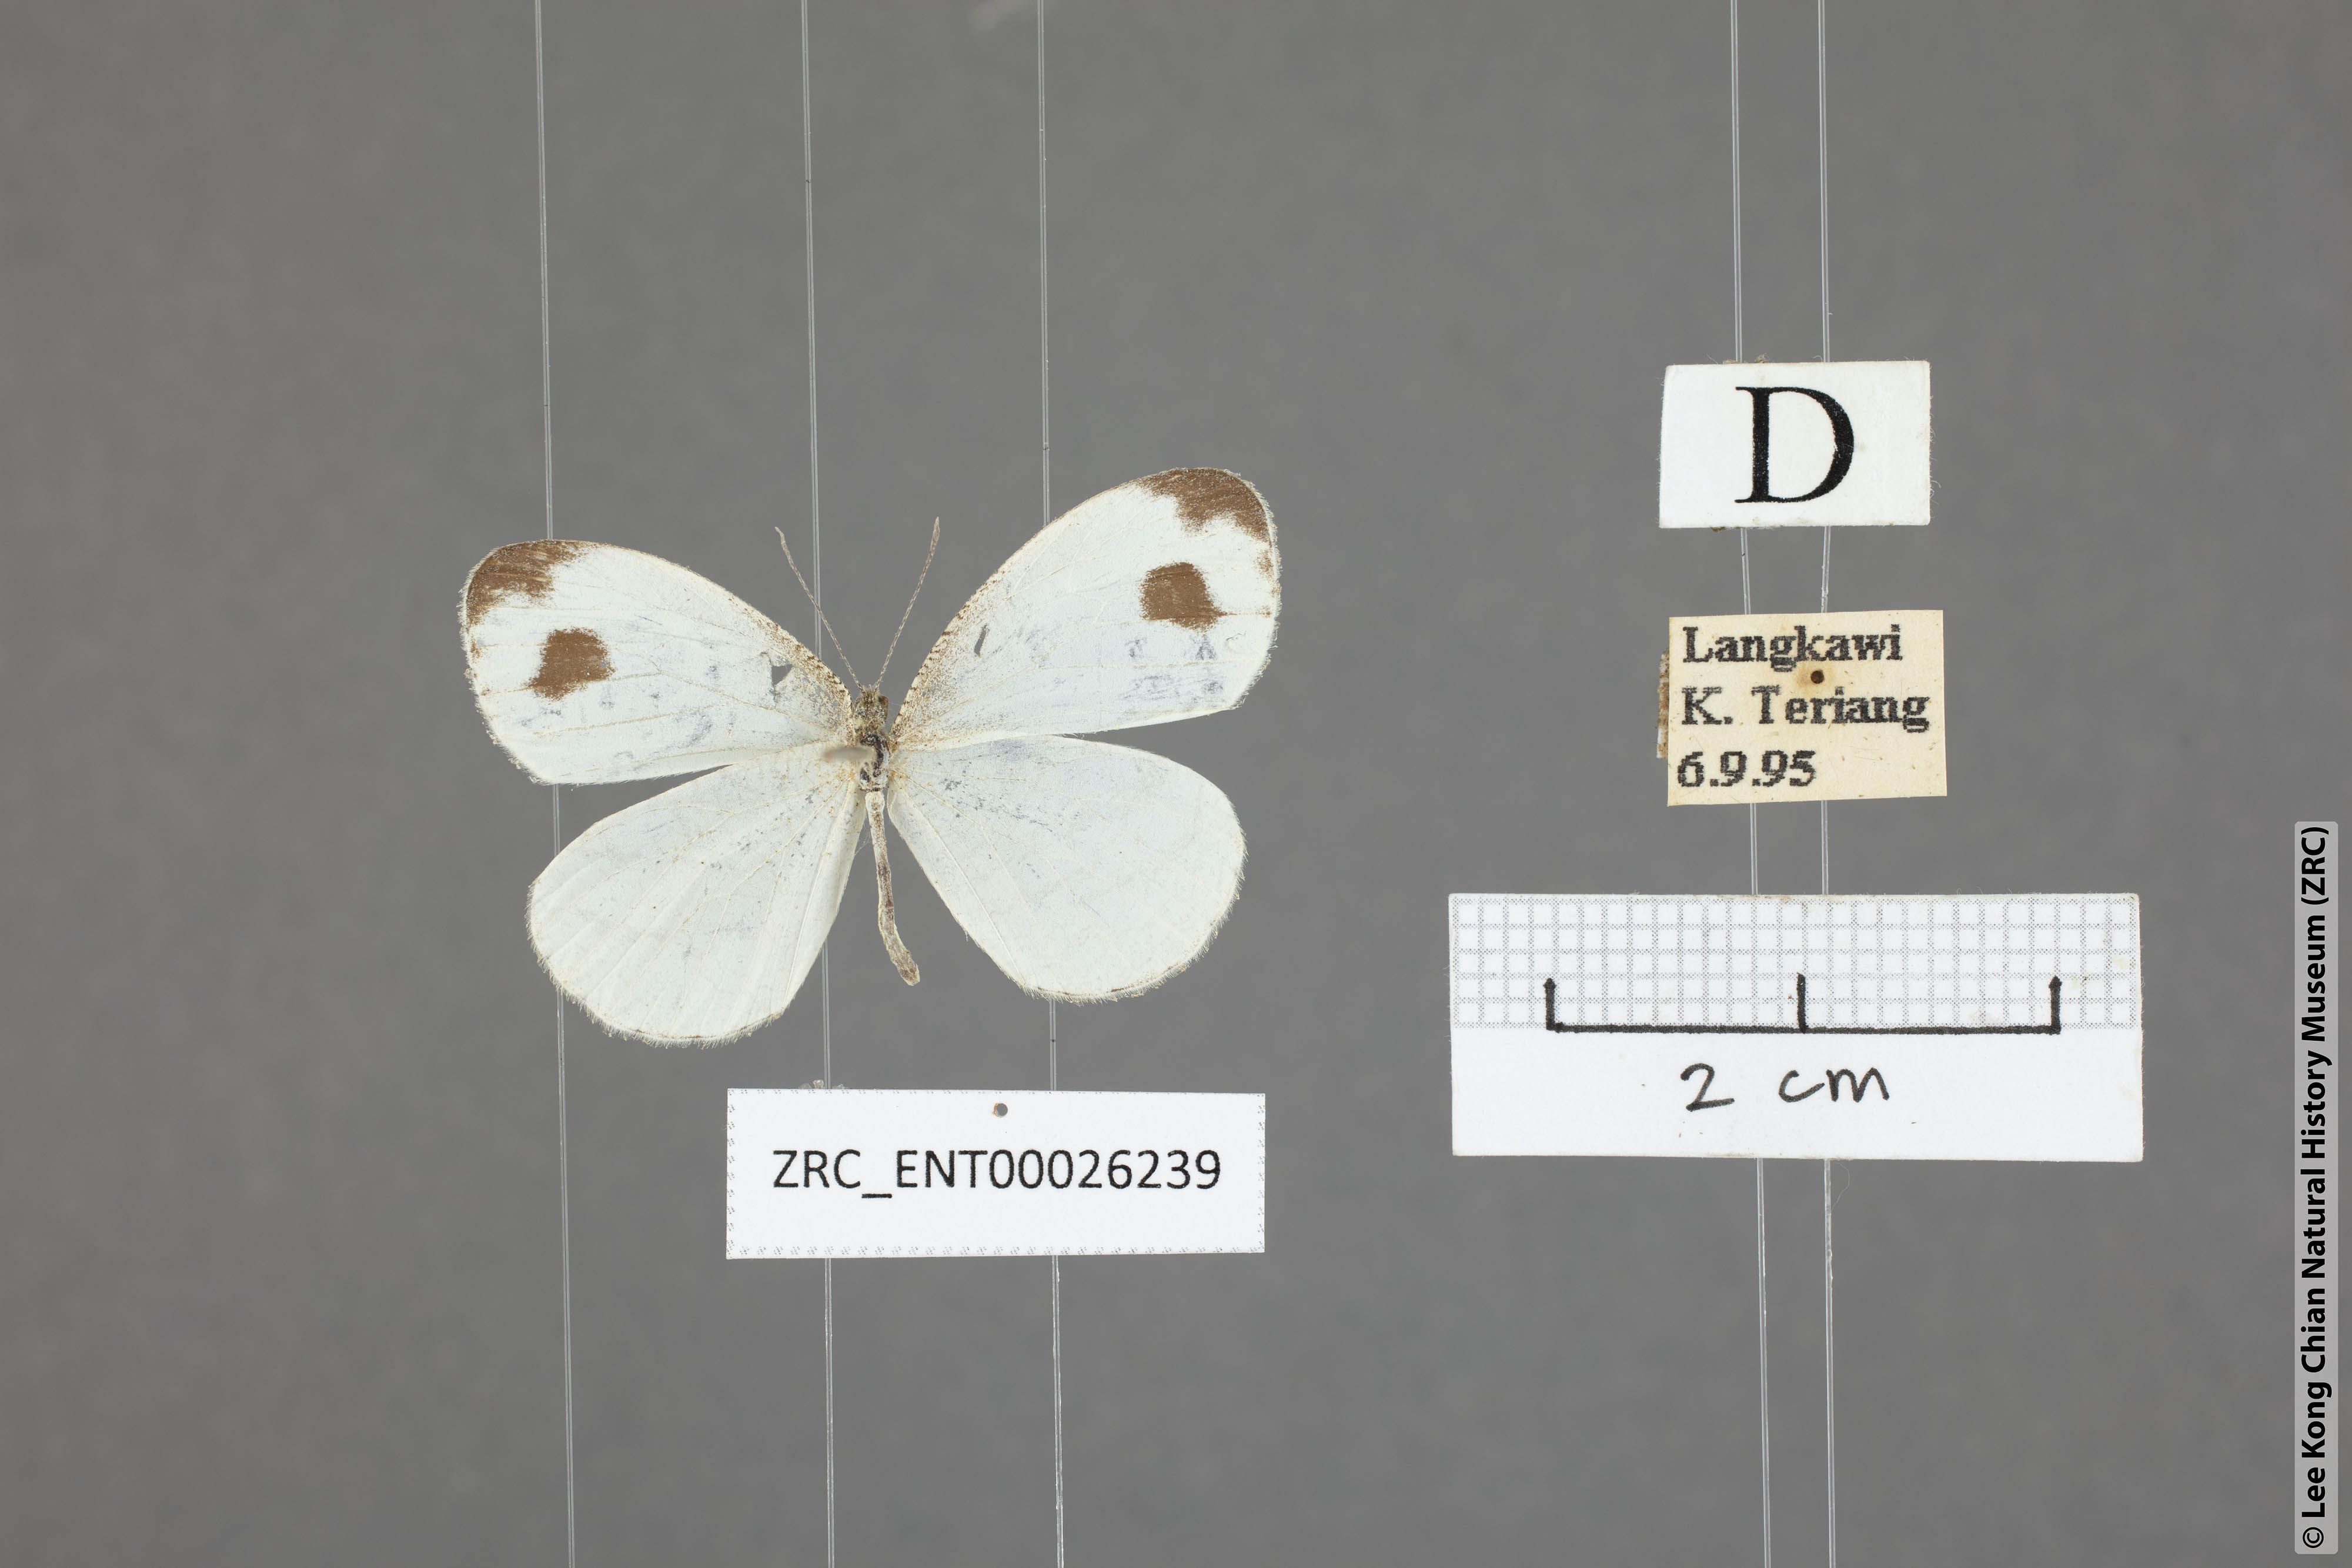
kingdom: Animalia
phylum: Arthropoda
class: Insecta
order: Lepidoptera
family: Pieridae
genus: Leptosia
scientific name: Leptosia nina
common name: Psyche
